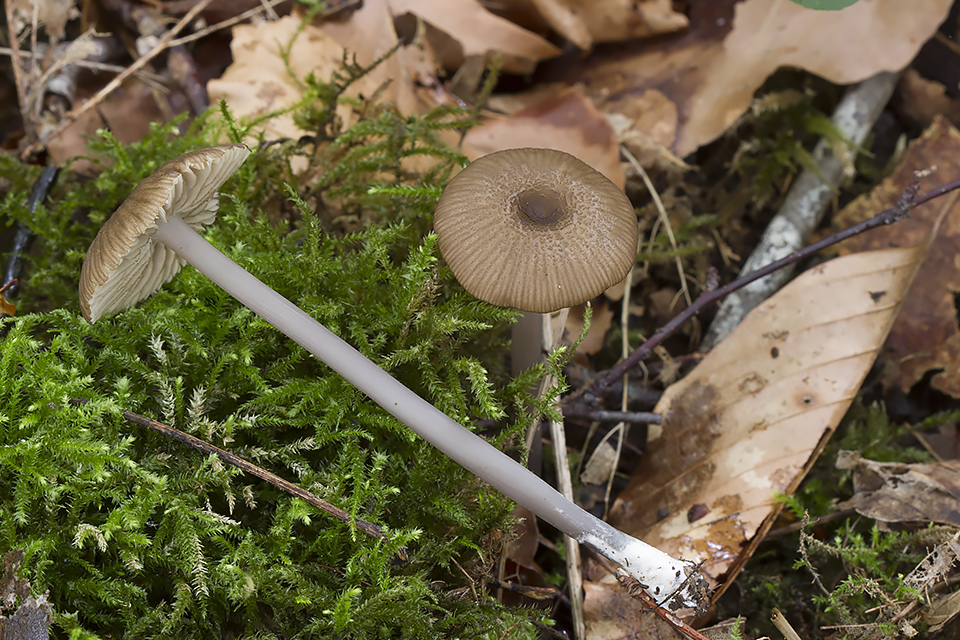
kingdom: Fungi
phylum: Basidiomycota
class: Agaricomycetes
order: Agaricales
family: Entolomataceae
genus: Entoloma
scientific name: Entoloma anatinum
